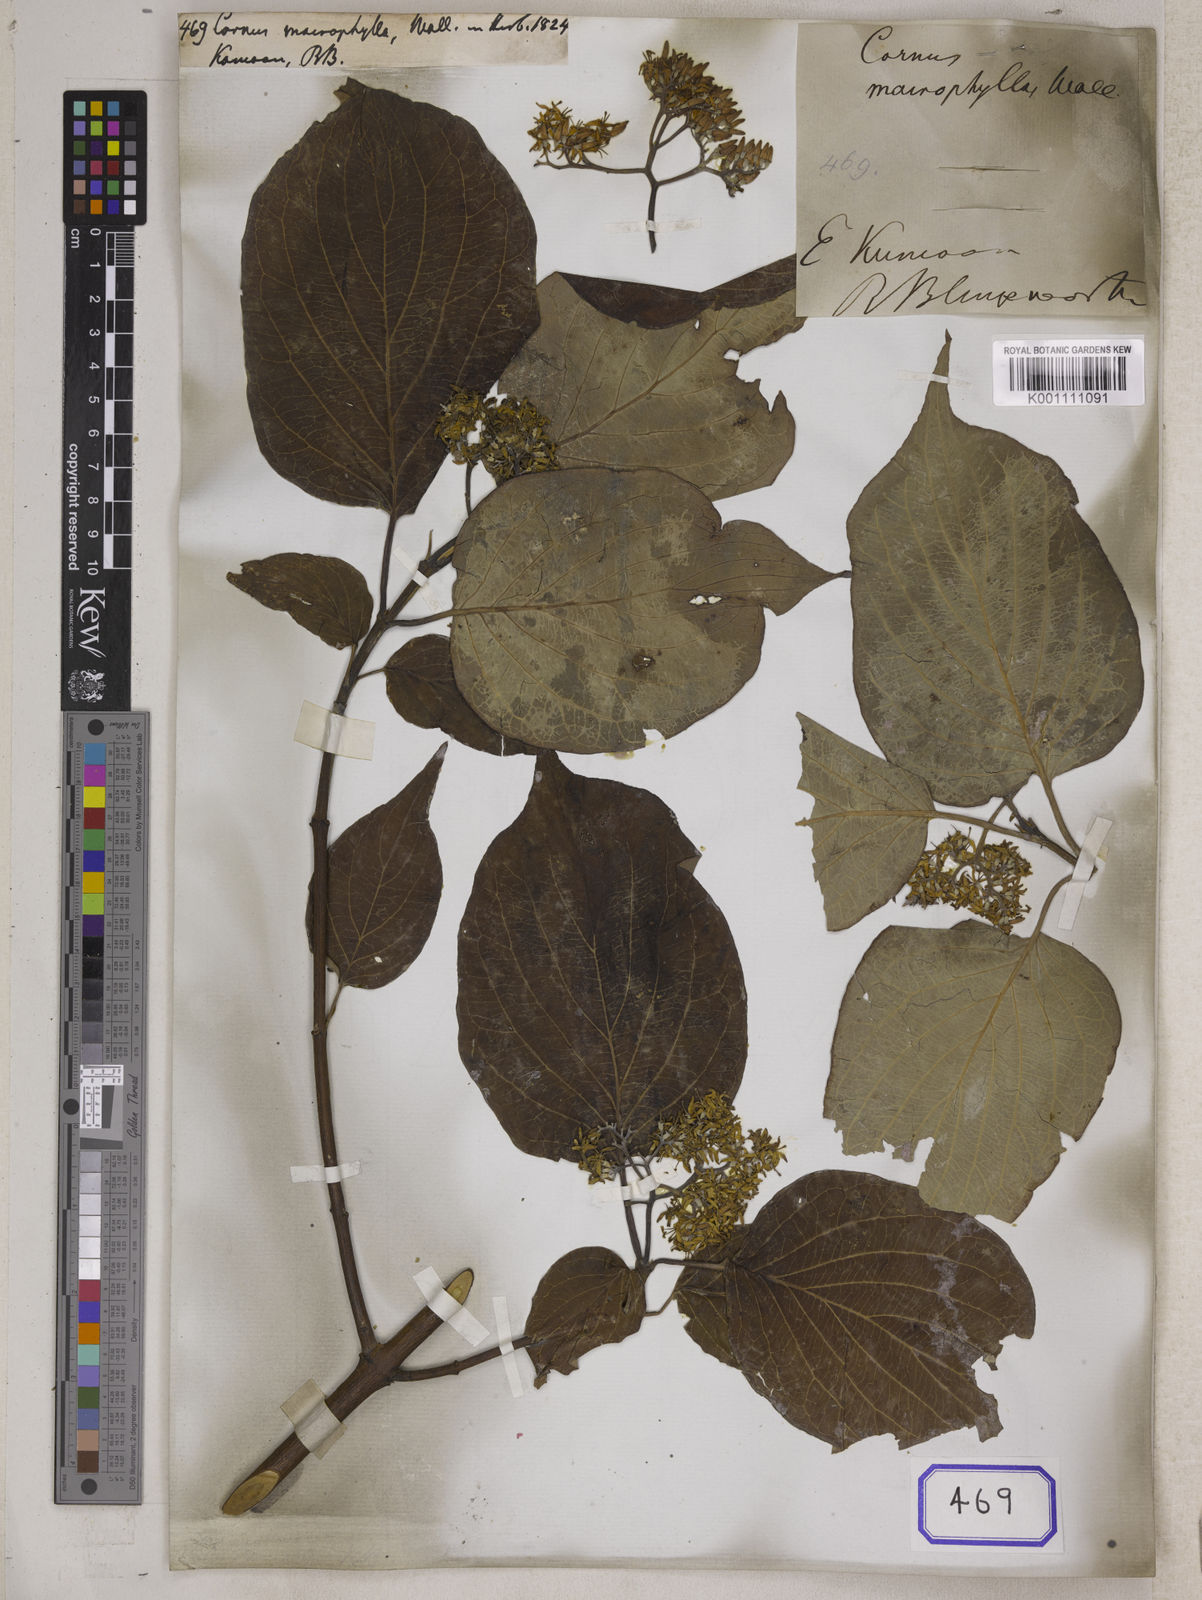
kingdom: Plantae
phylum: Tracheophyta
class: Magnoliopsida
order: Cornales
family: Cornaceae
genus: Cornus
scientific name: Cornus macrophylla
